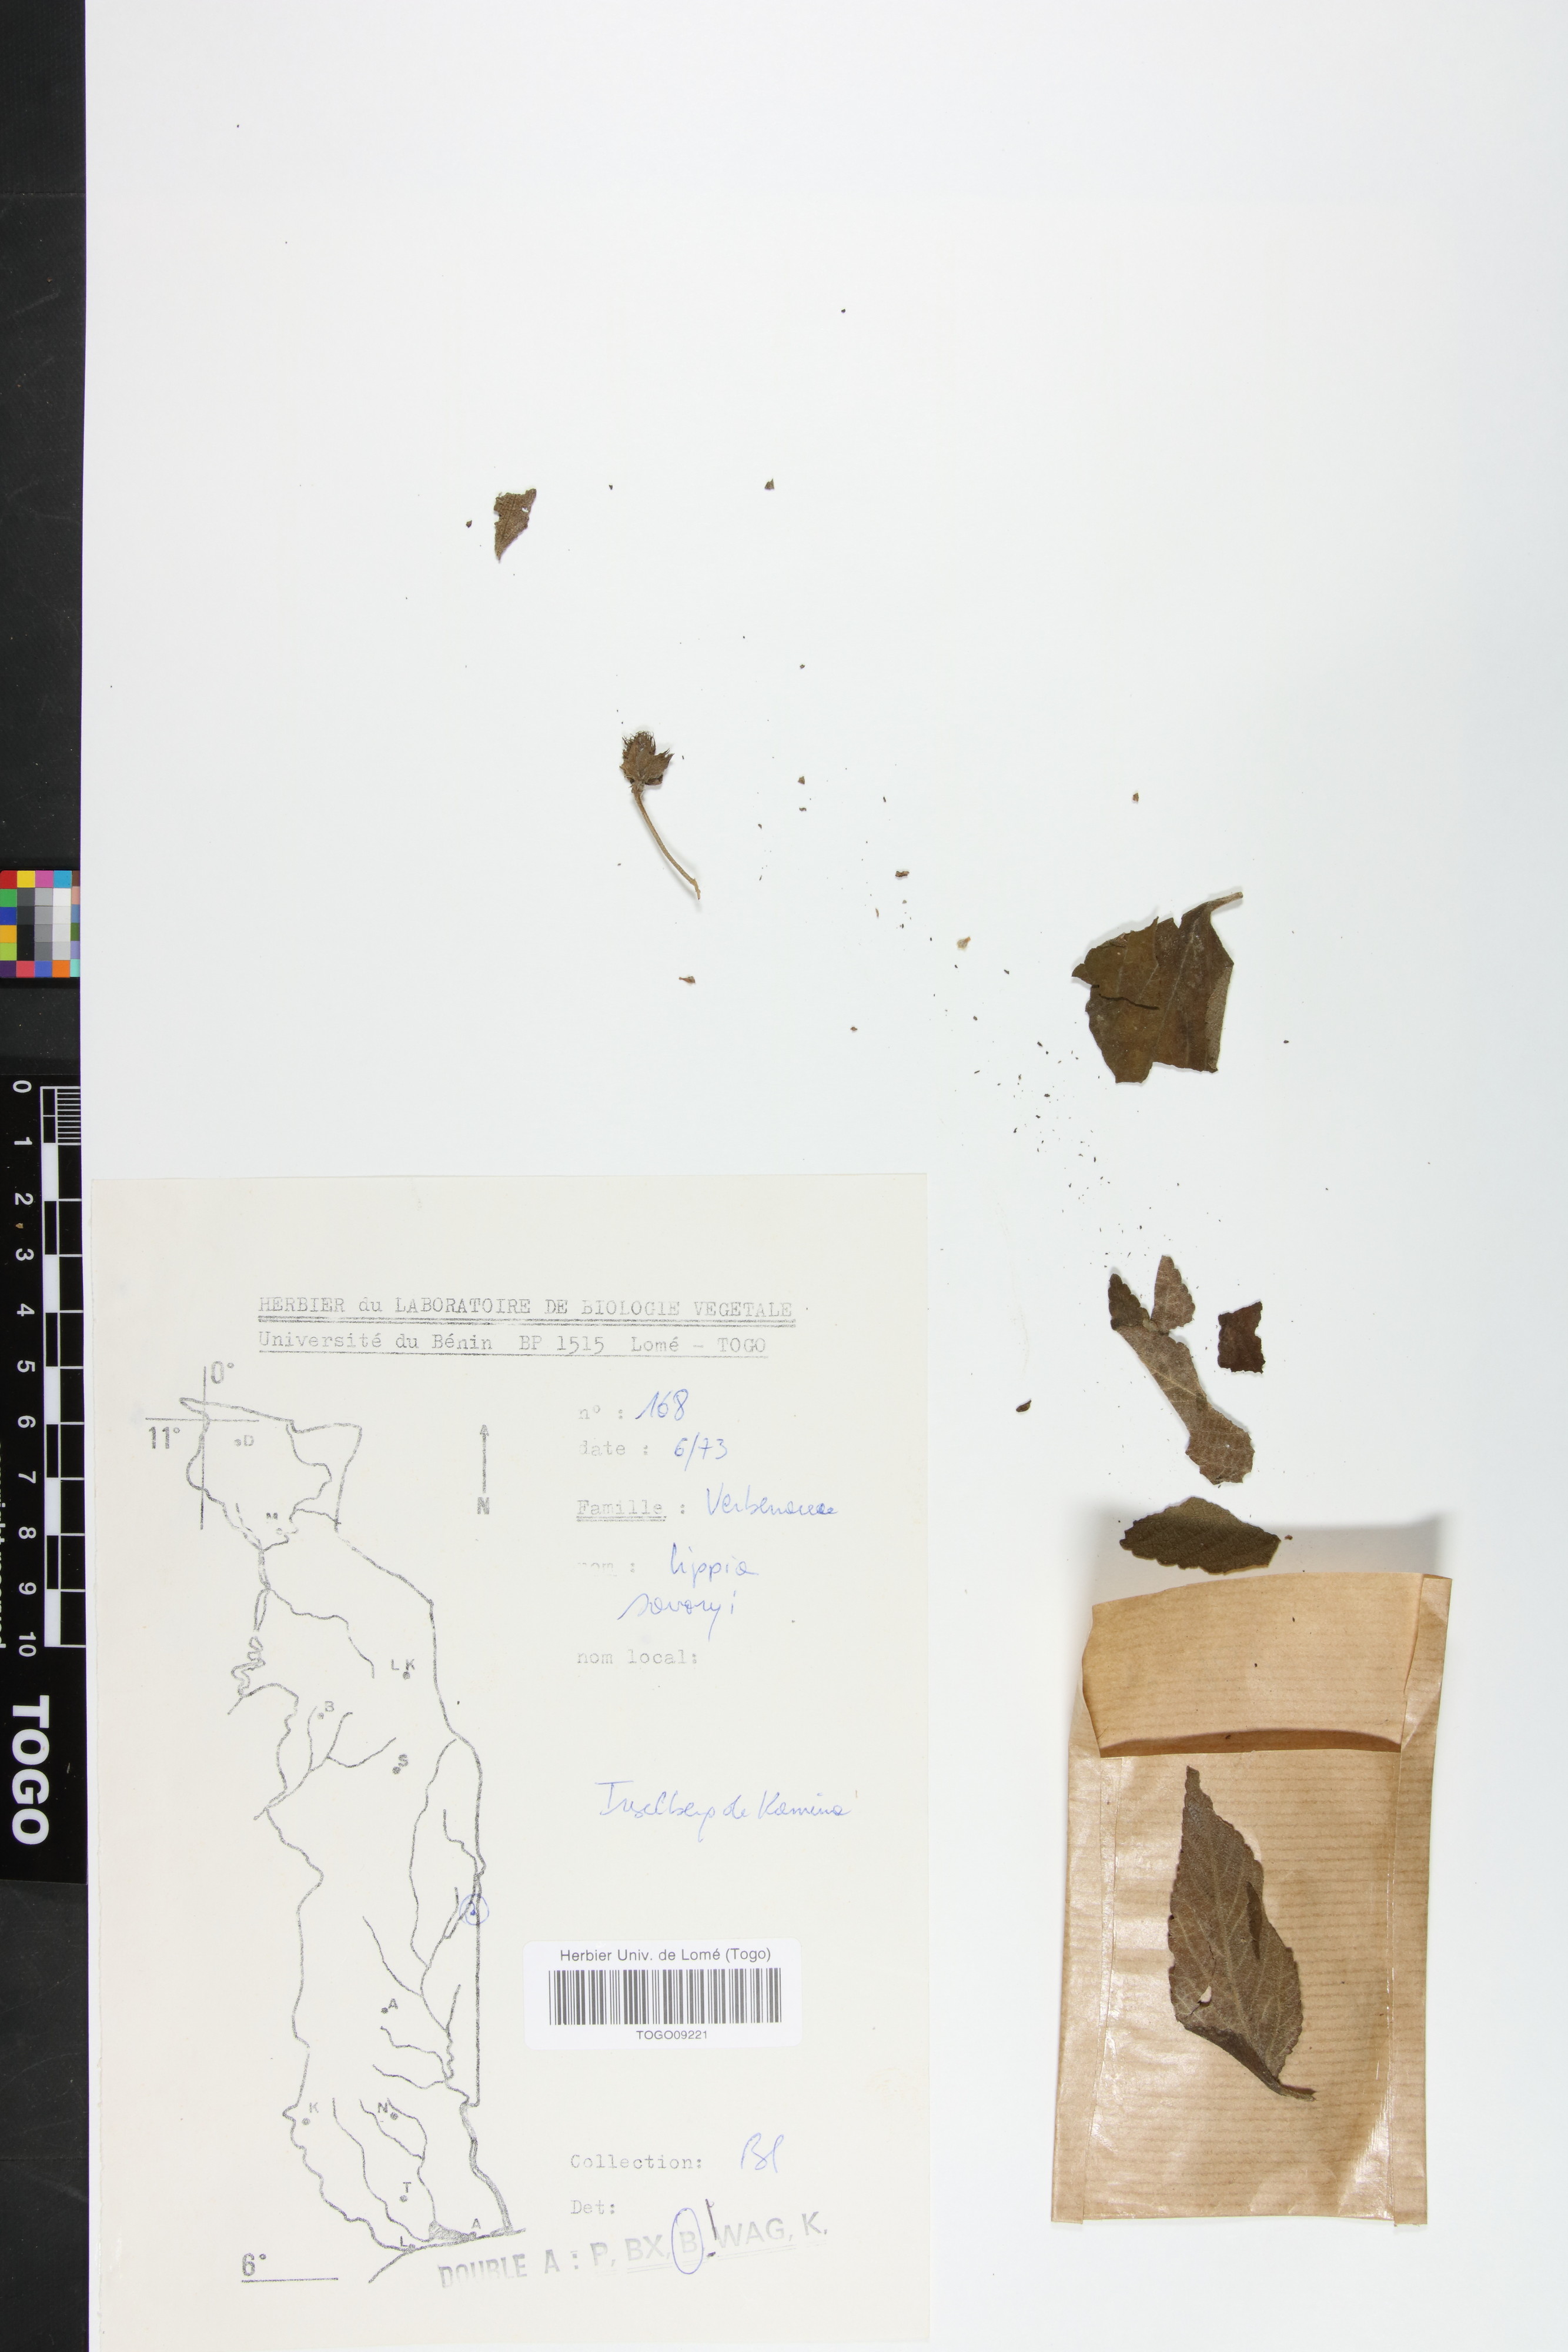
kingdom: Plantae
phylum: Tracheophyta
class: Magnoliopsida
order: Lamiales
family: Verbenaceae
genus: Lippia
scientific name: Lippia savoryi
